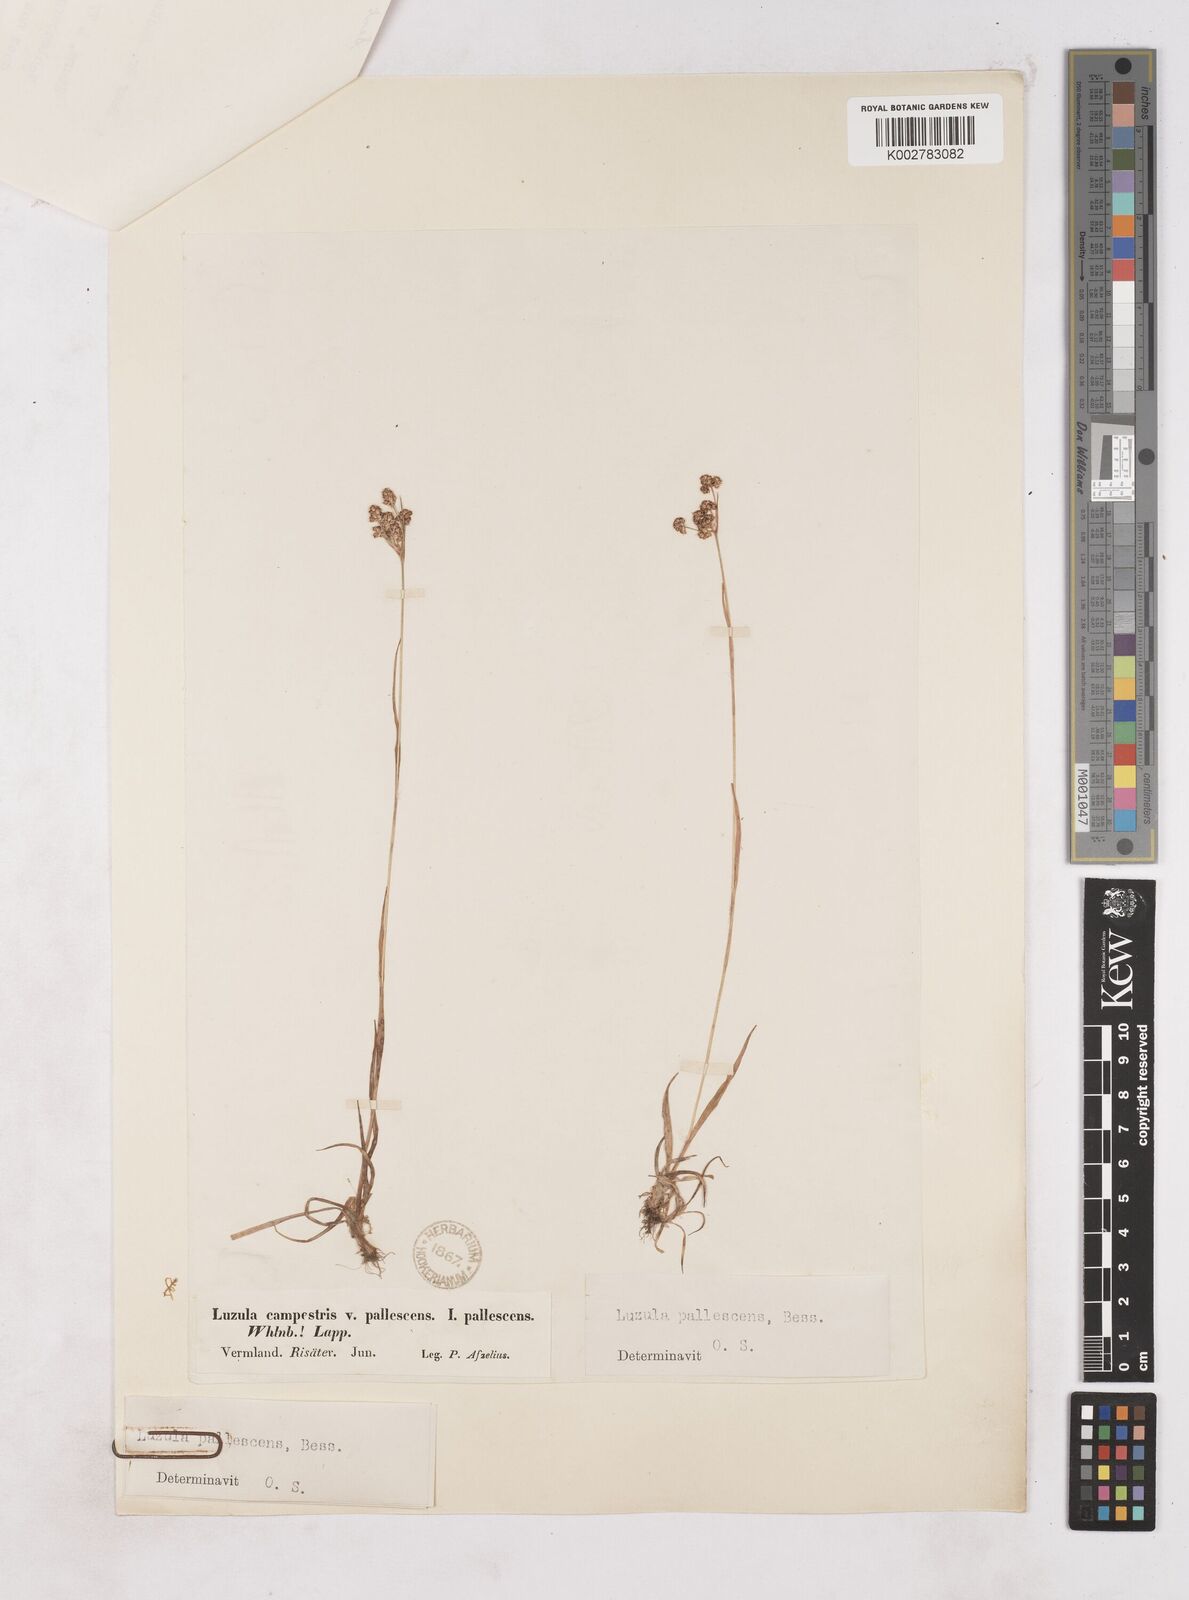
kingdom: Plantae
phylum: Tracheophyta
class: Liliopsida
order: Poales
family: Juncaceae
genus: Luzula
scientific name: Luzula pallescens
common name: Fen wood-rush
